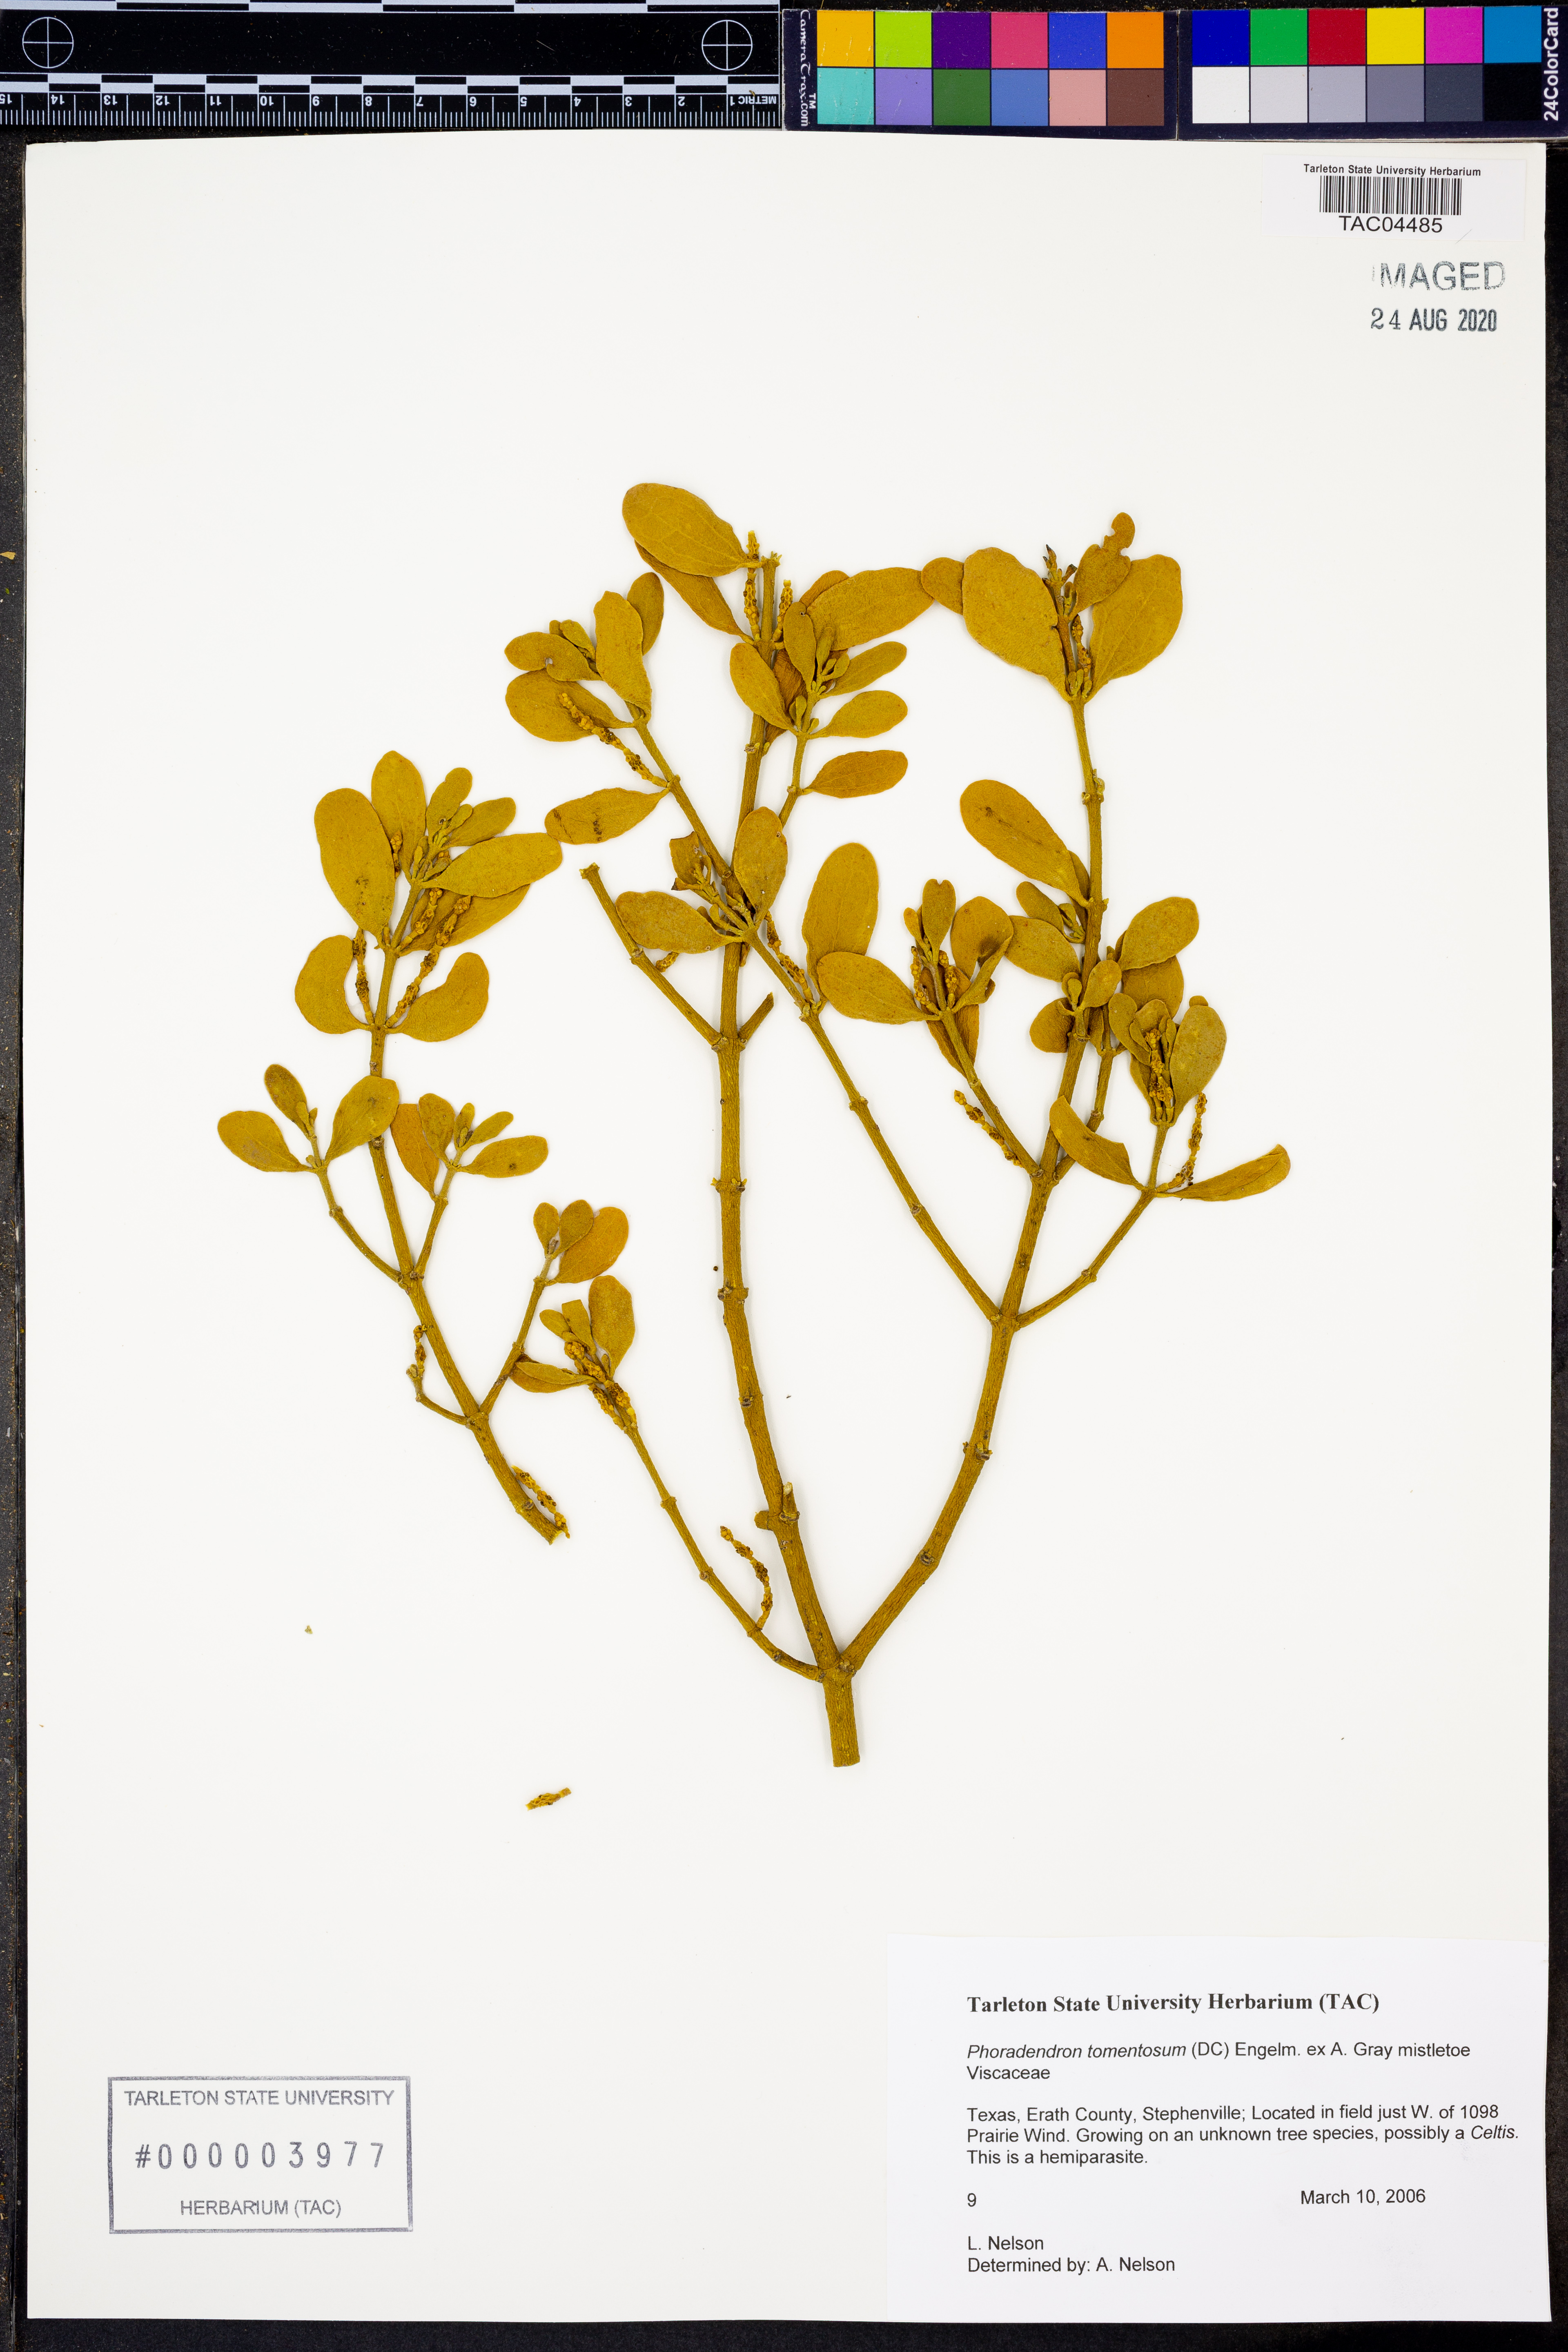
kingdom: Plantae
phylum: Tracheophyta
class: Magnoliopsida
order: Santalales
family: Viscaceae
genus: Phoradendron
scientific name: Phoradendron leucarpum
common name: Pacific mistletoe
